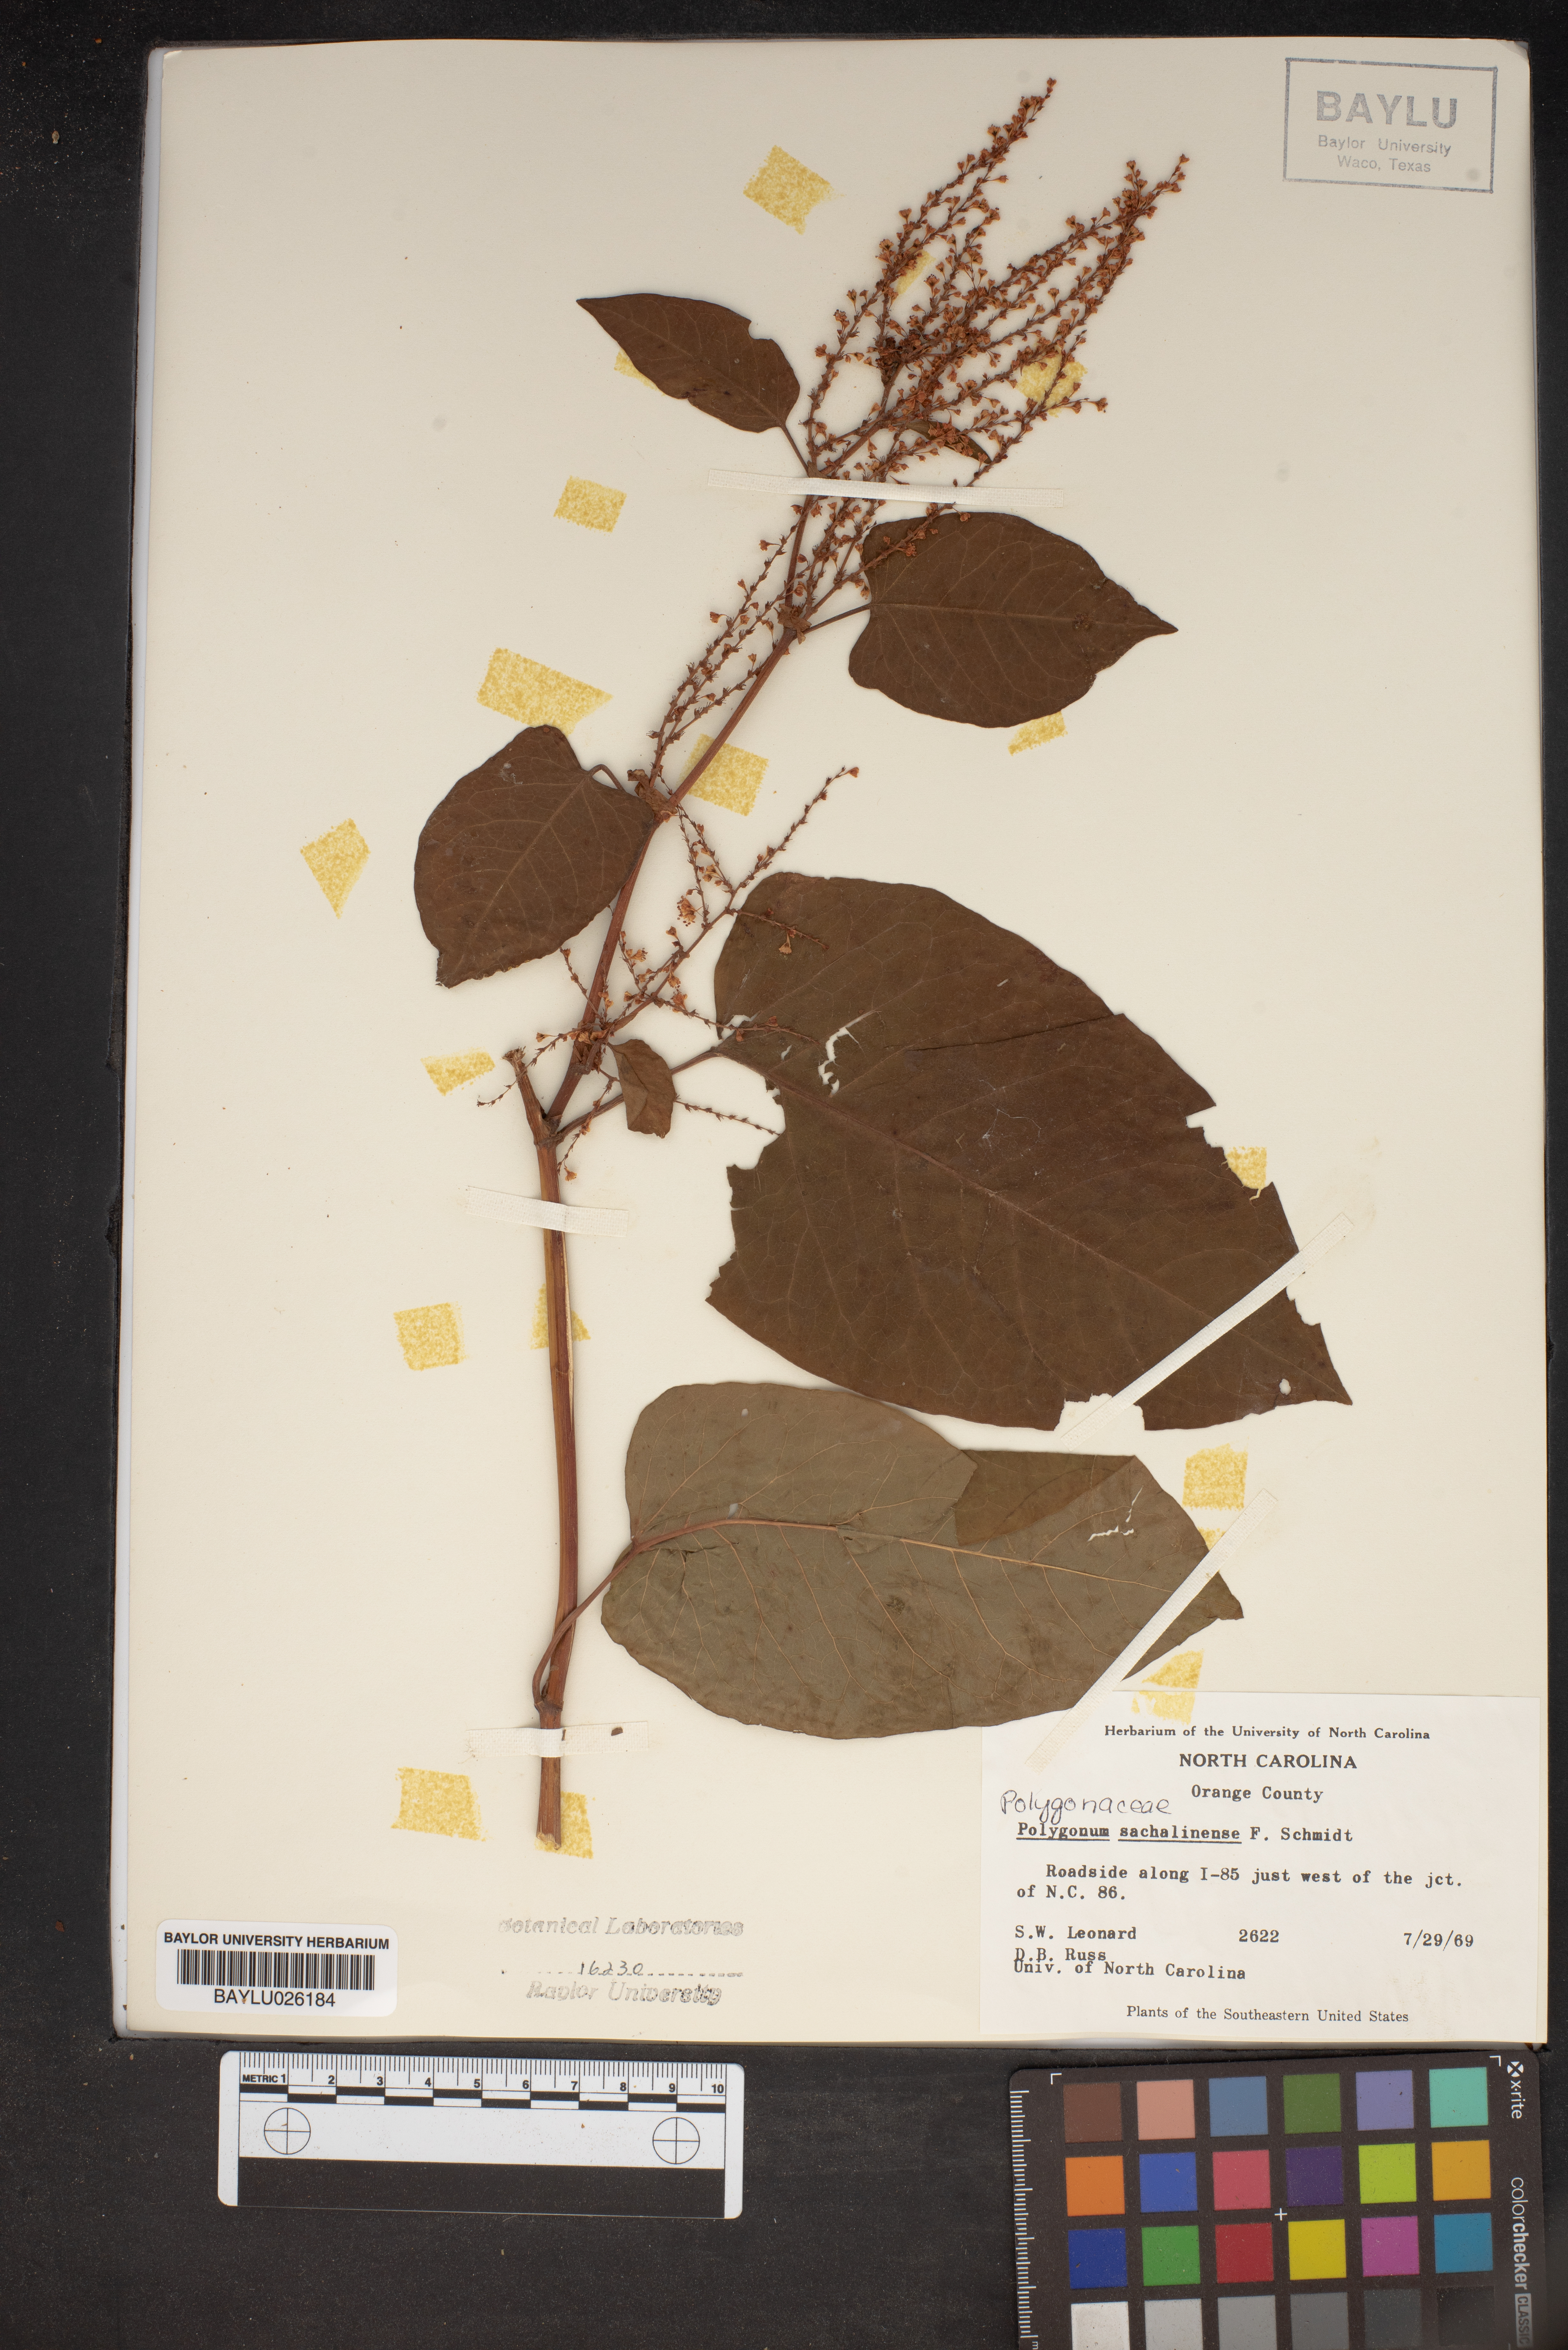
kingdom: Plantae
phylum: Tracheophyta
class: Magnoliopsida
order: Caryophyllales
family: Polygonaceae
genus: Reynoutria
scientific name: Reynoutria sachalinensis
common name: Giant knotweed
